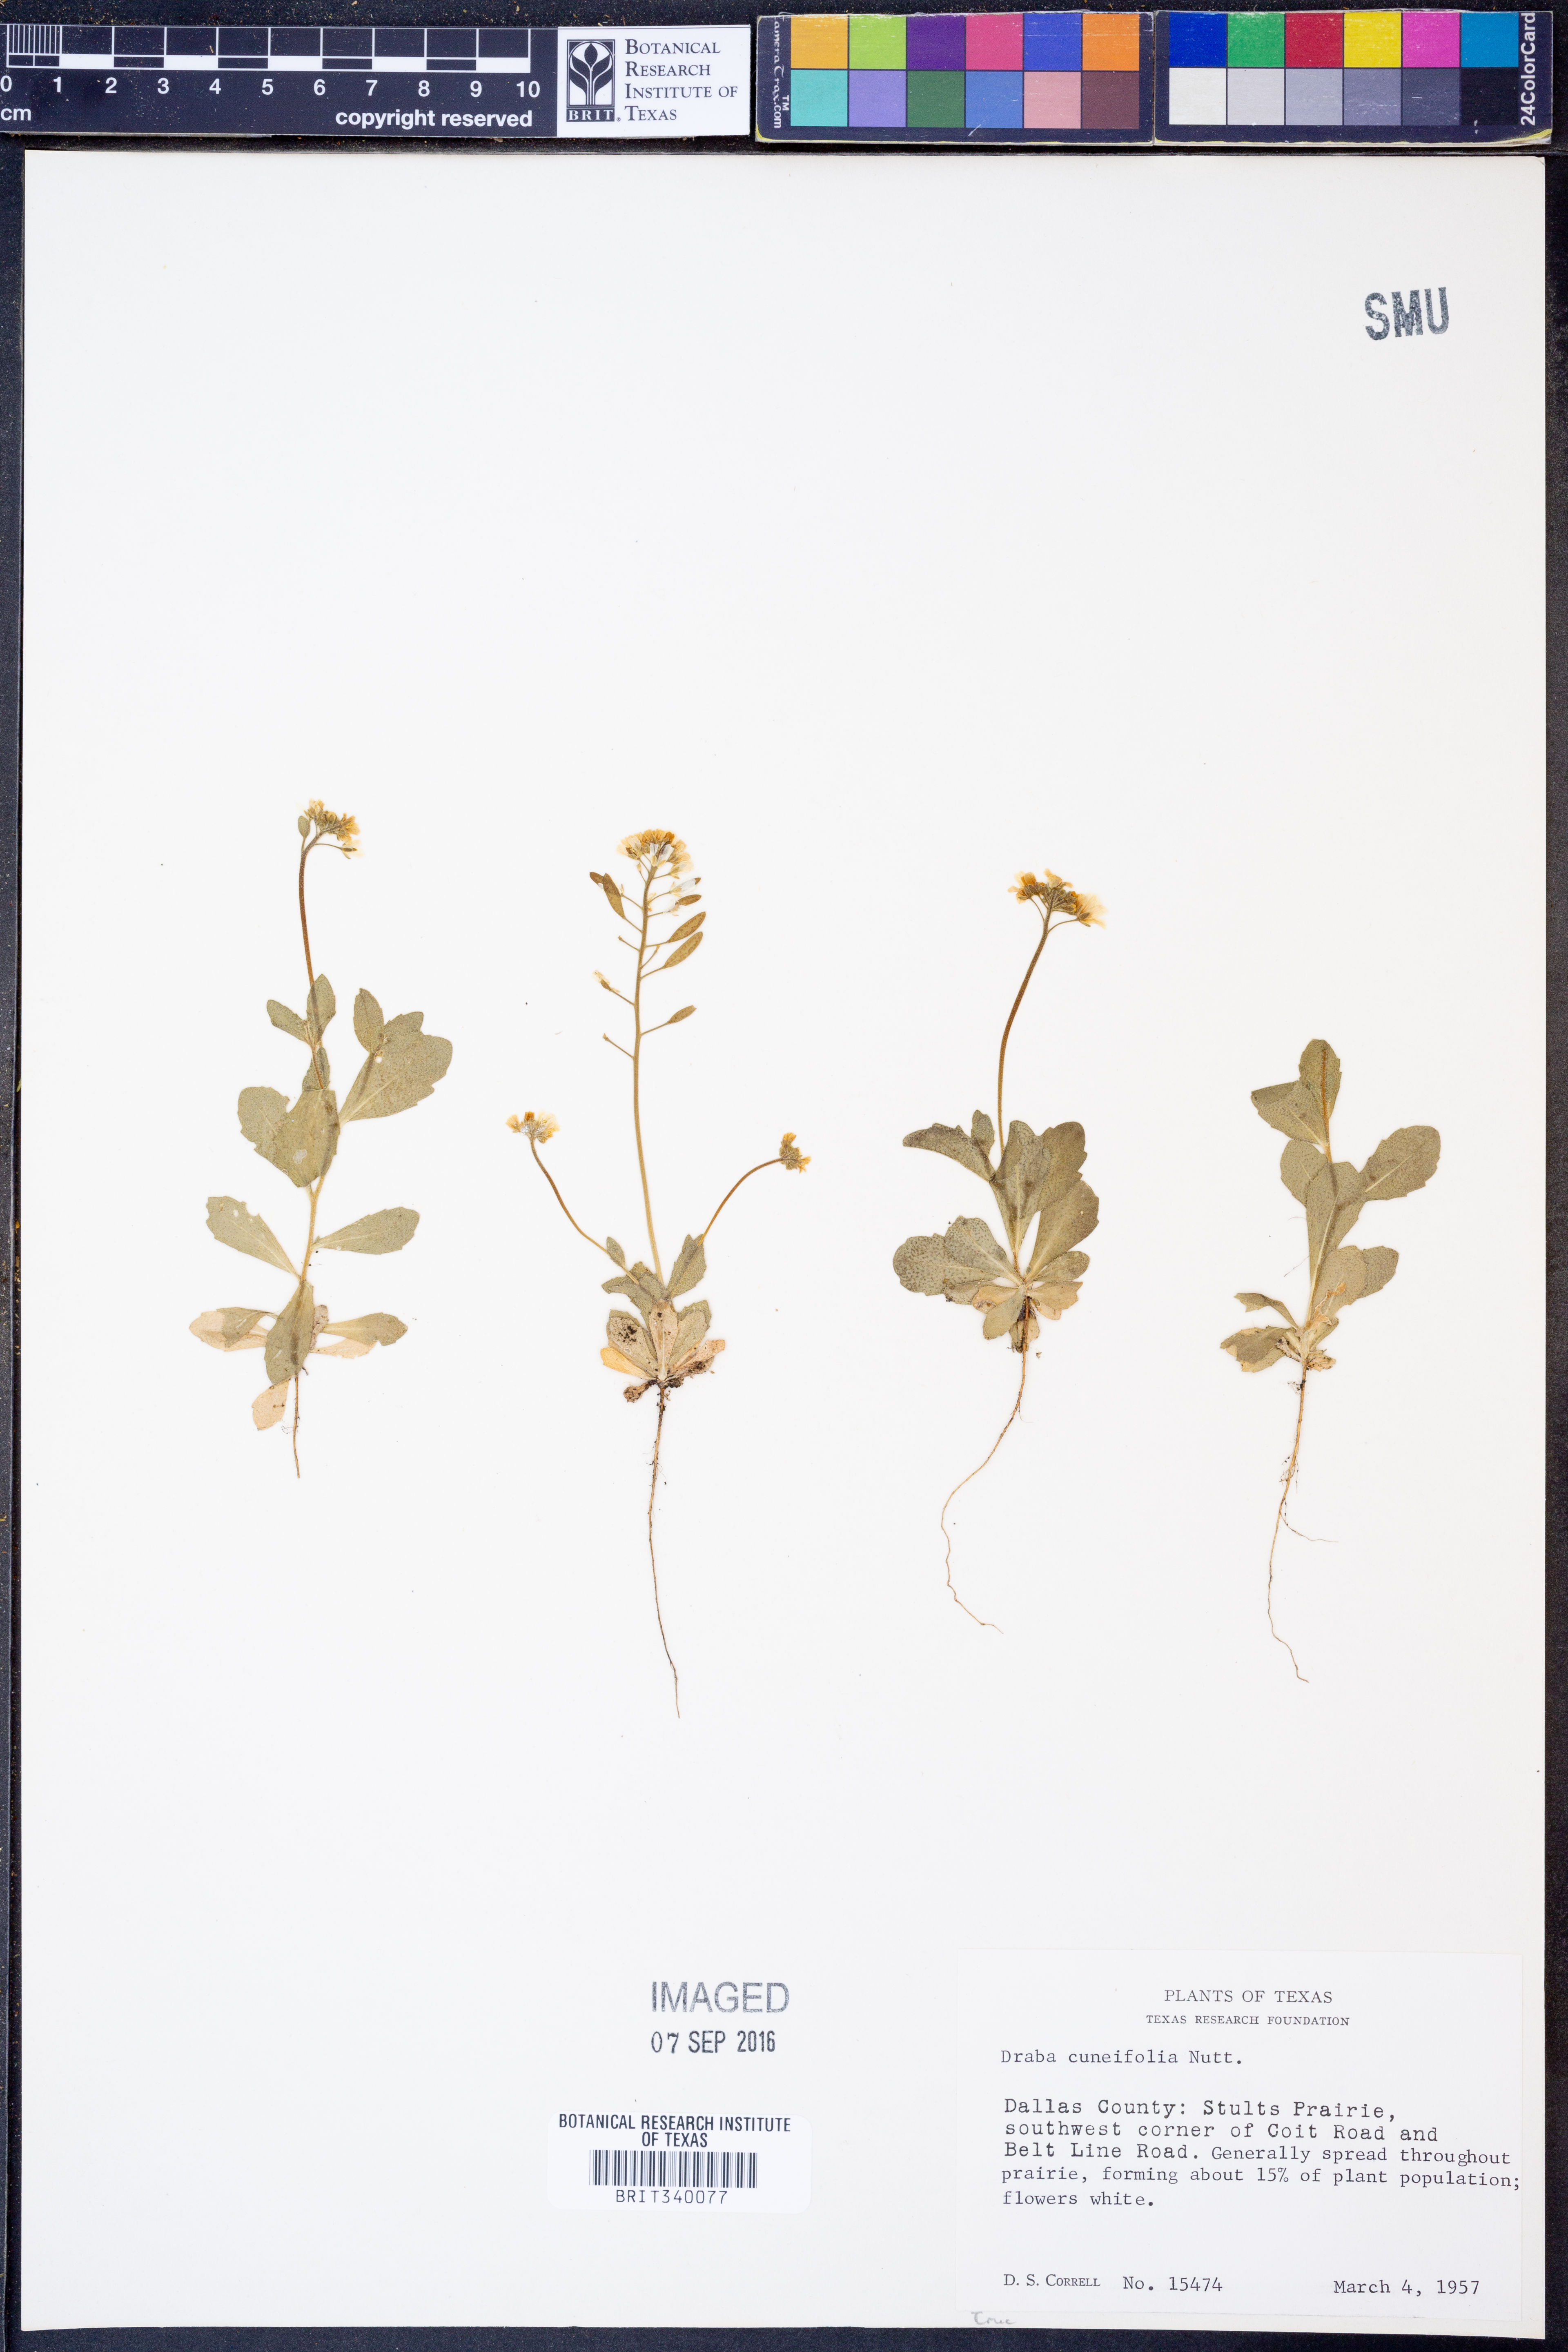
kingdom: Plantae
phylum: Tracheophyta
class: Magnoliopsida
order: Brassicales
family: Brassicaceae
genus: Tomostima
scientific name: Tomostima cuneifolia
